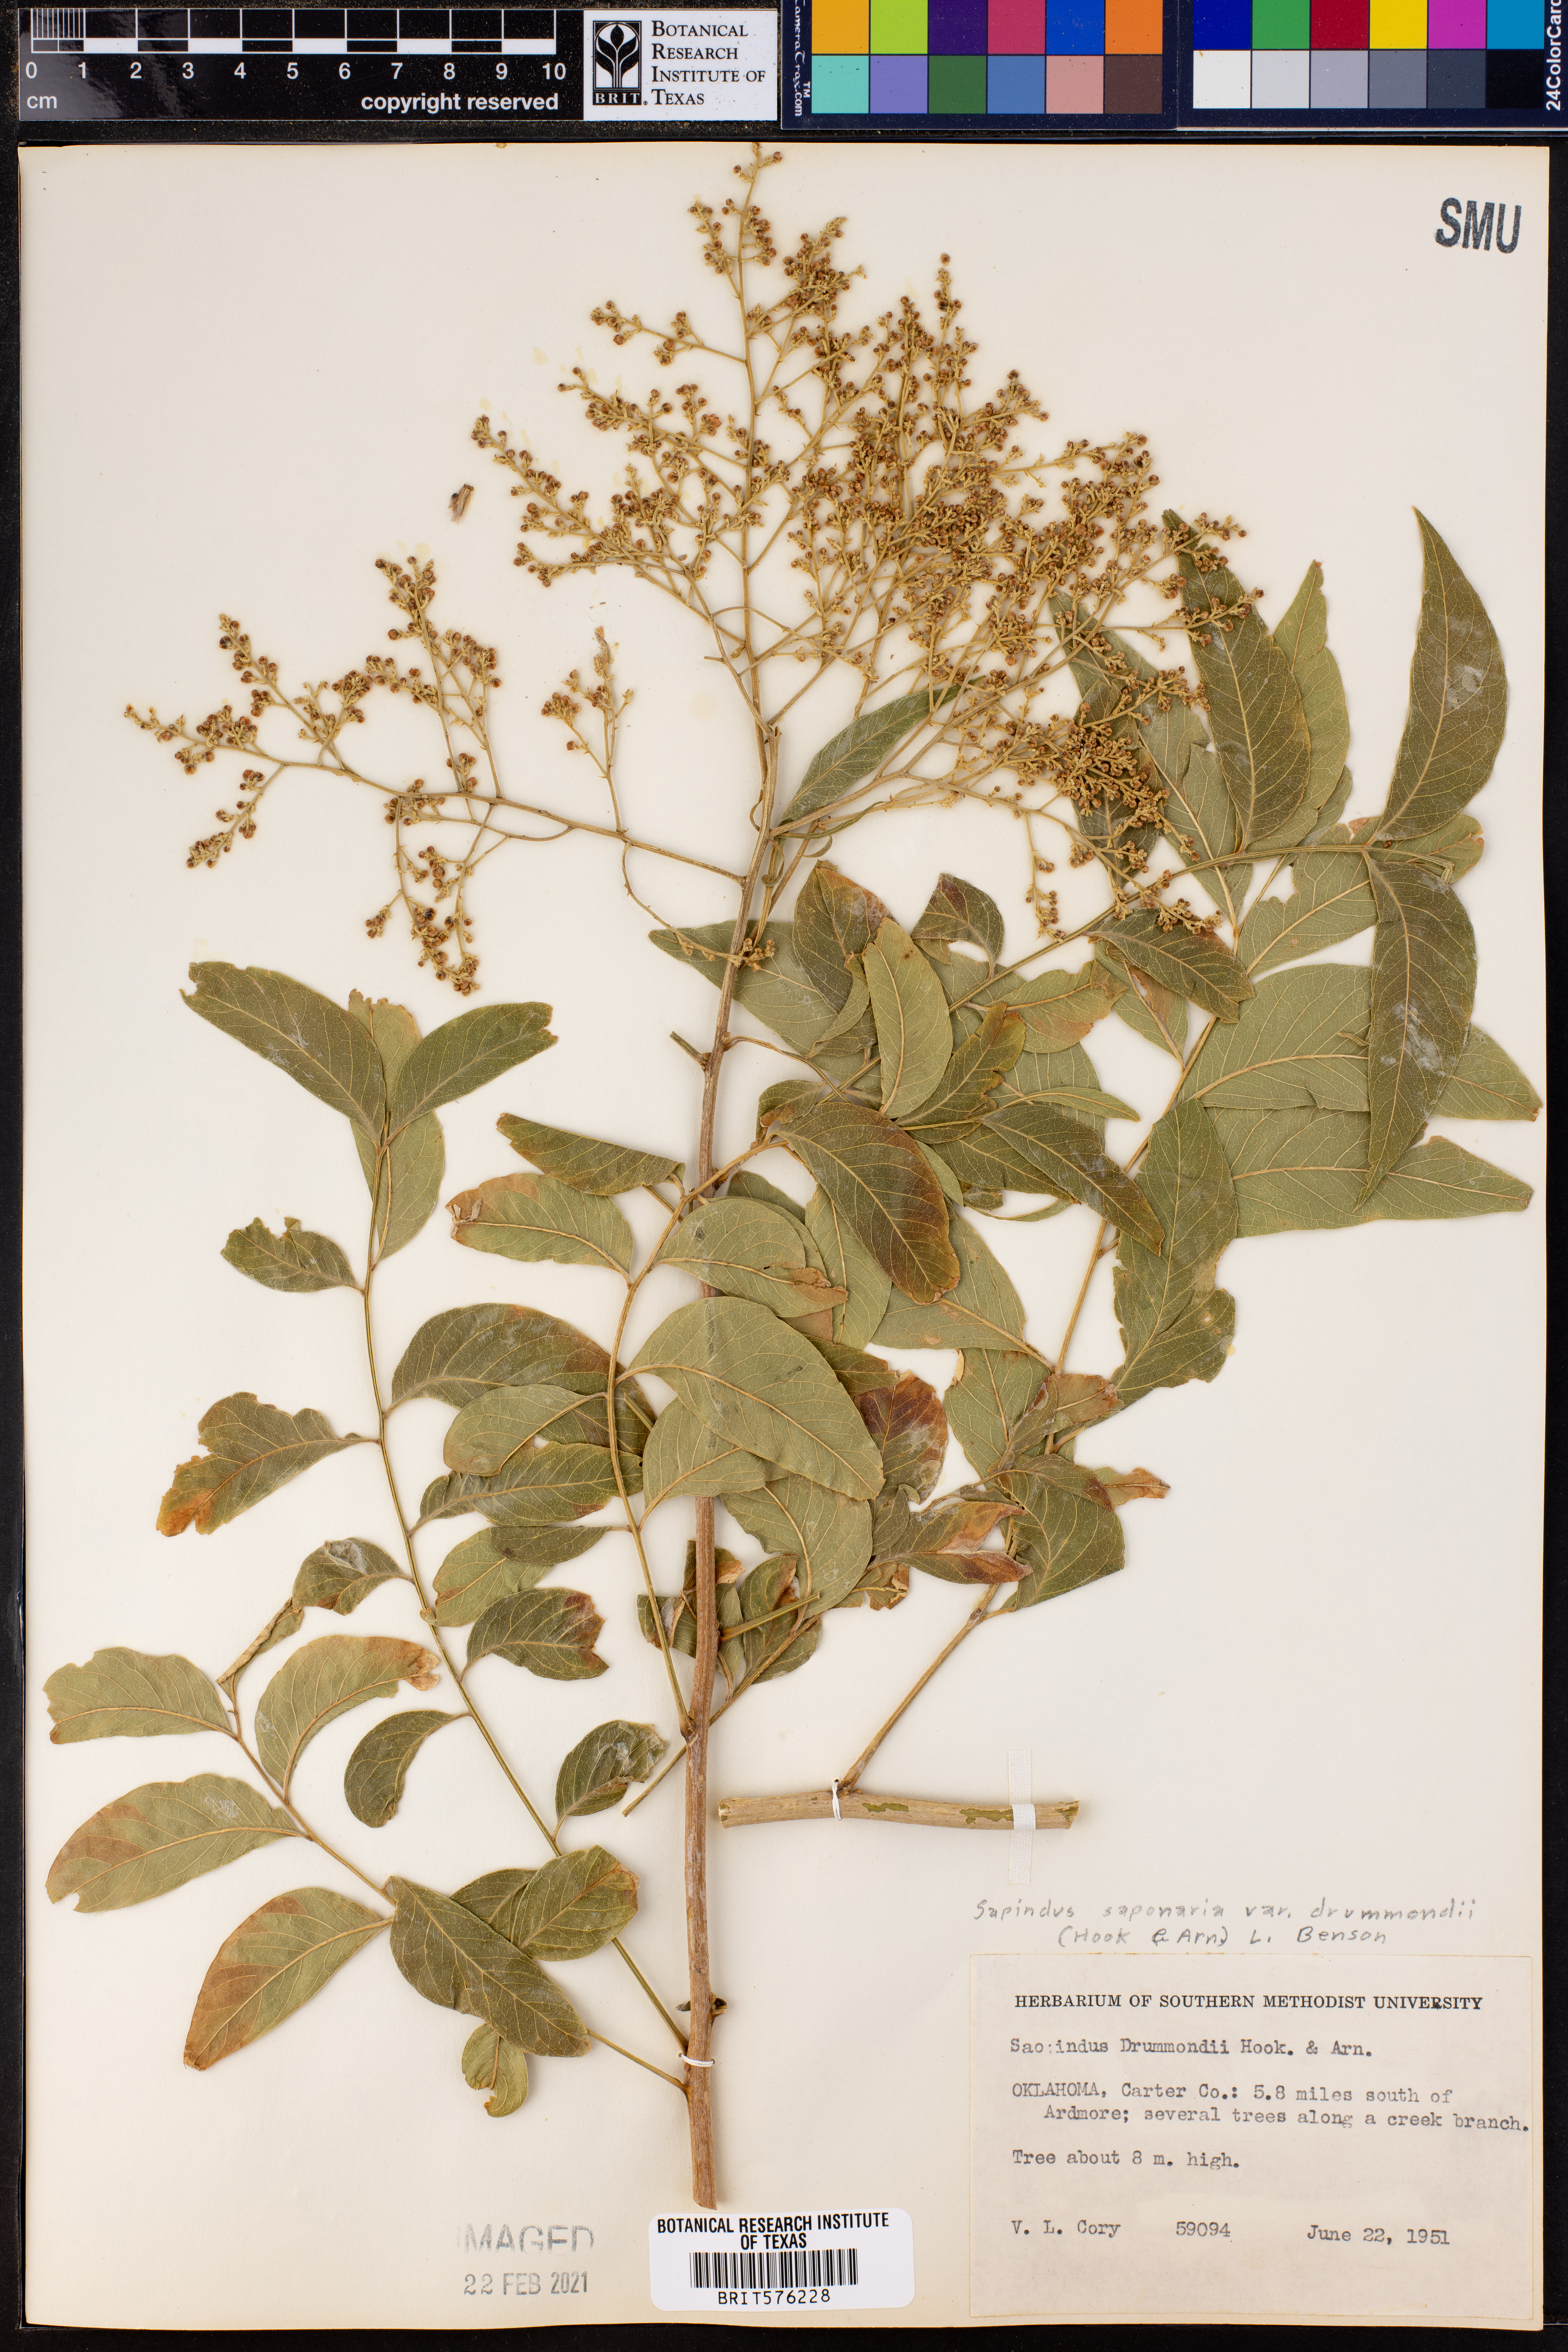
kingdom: Plantae
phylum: Tracheophyta
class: Magnoliopsida
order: Sapindales
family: Sapindaceae
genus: Sapindus
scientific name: Sapindus drummondii
